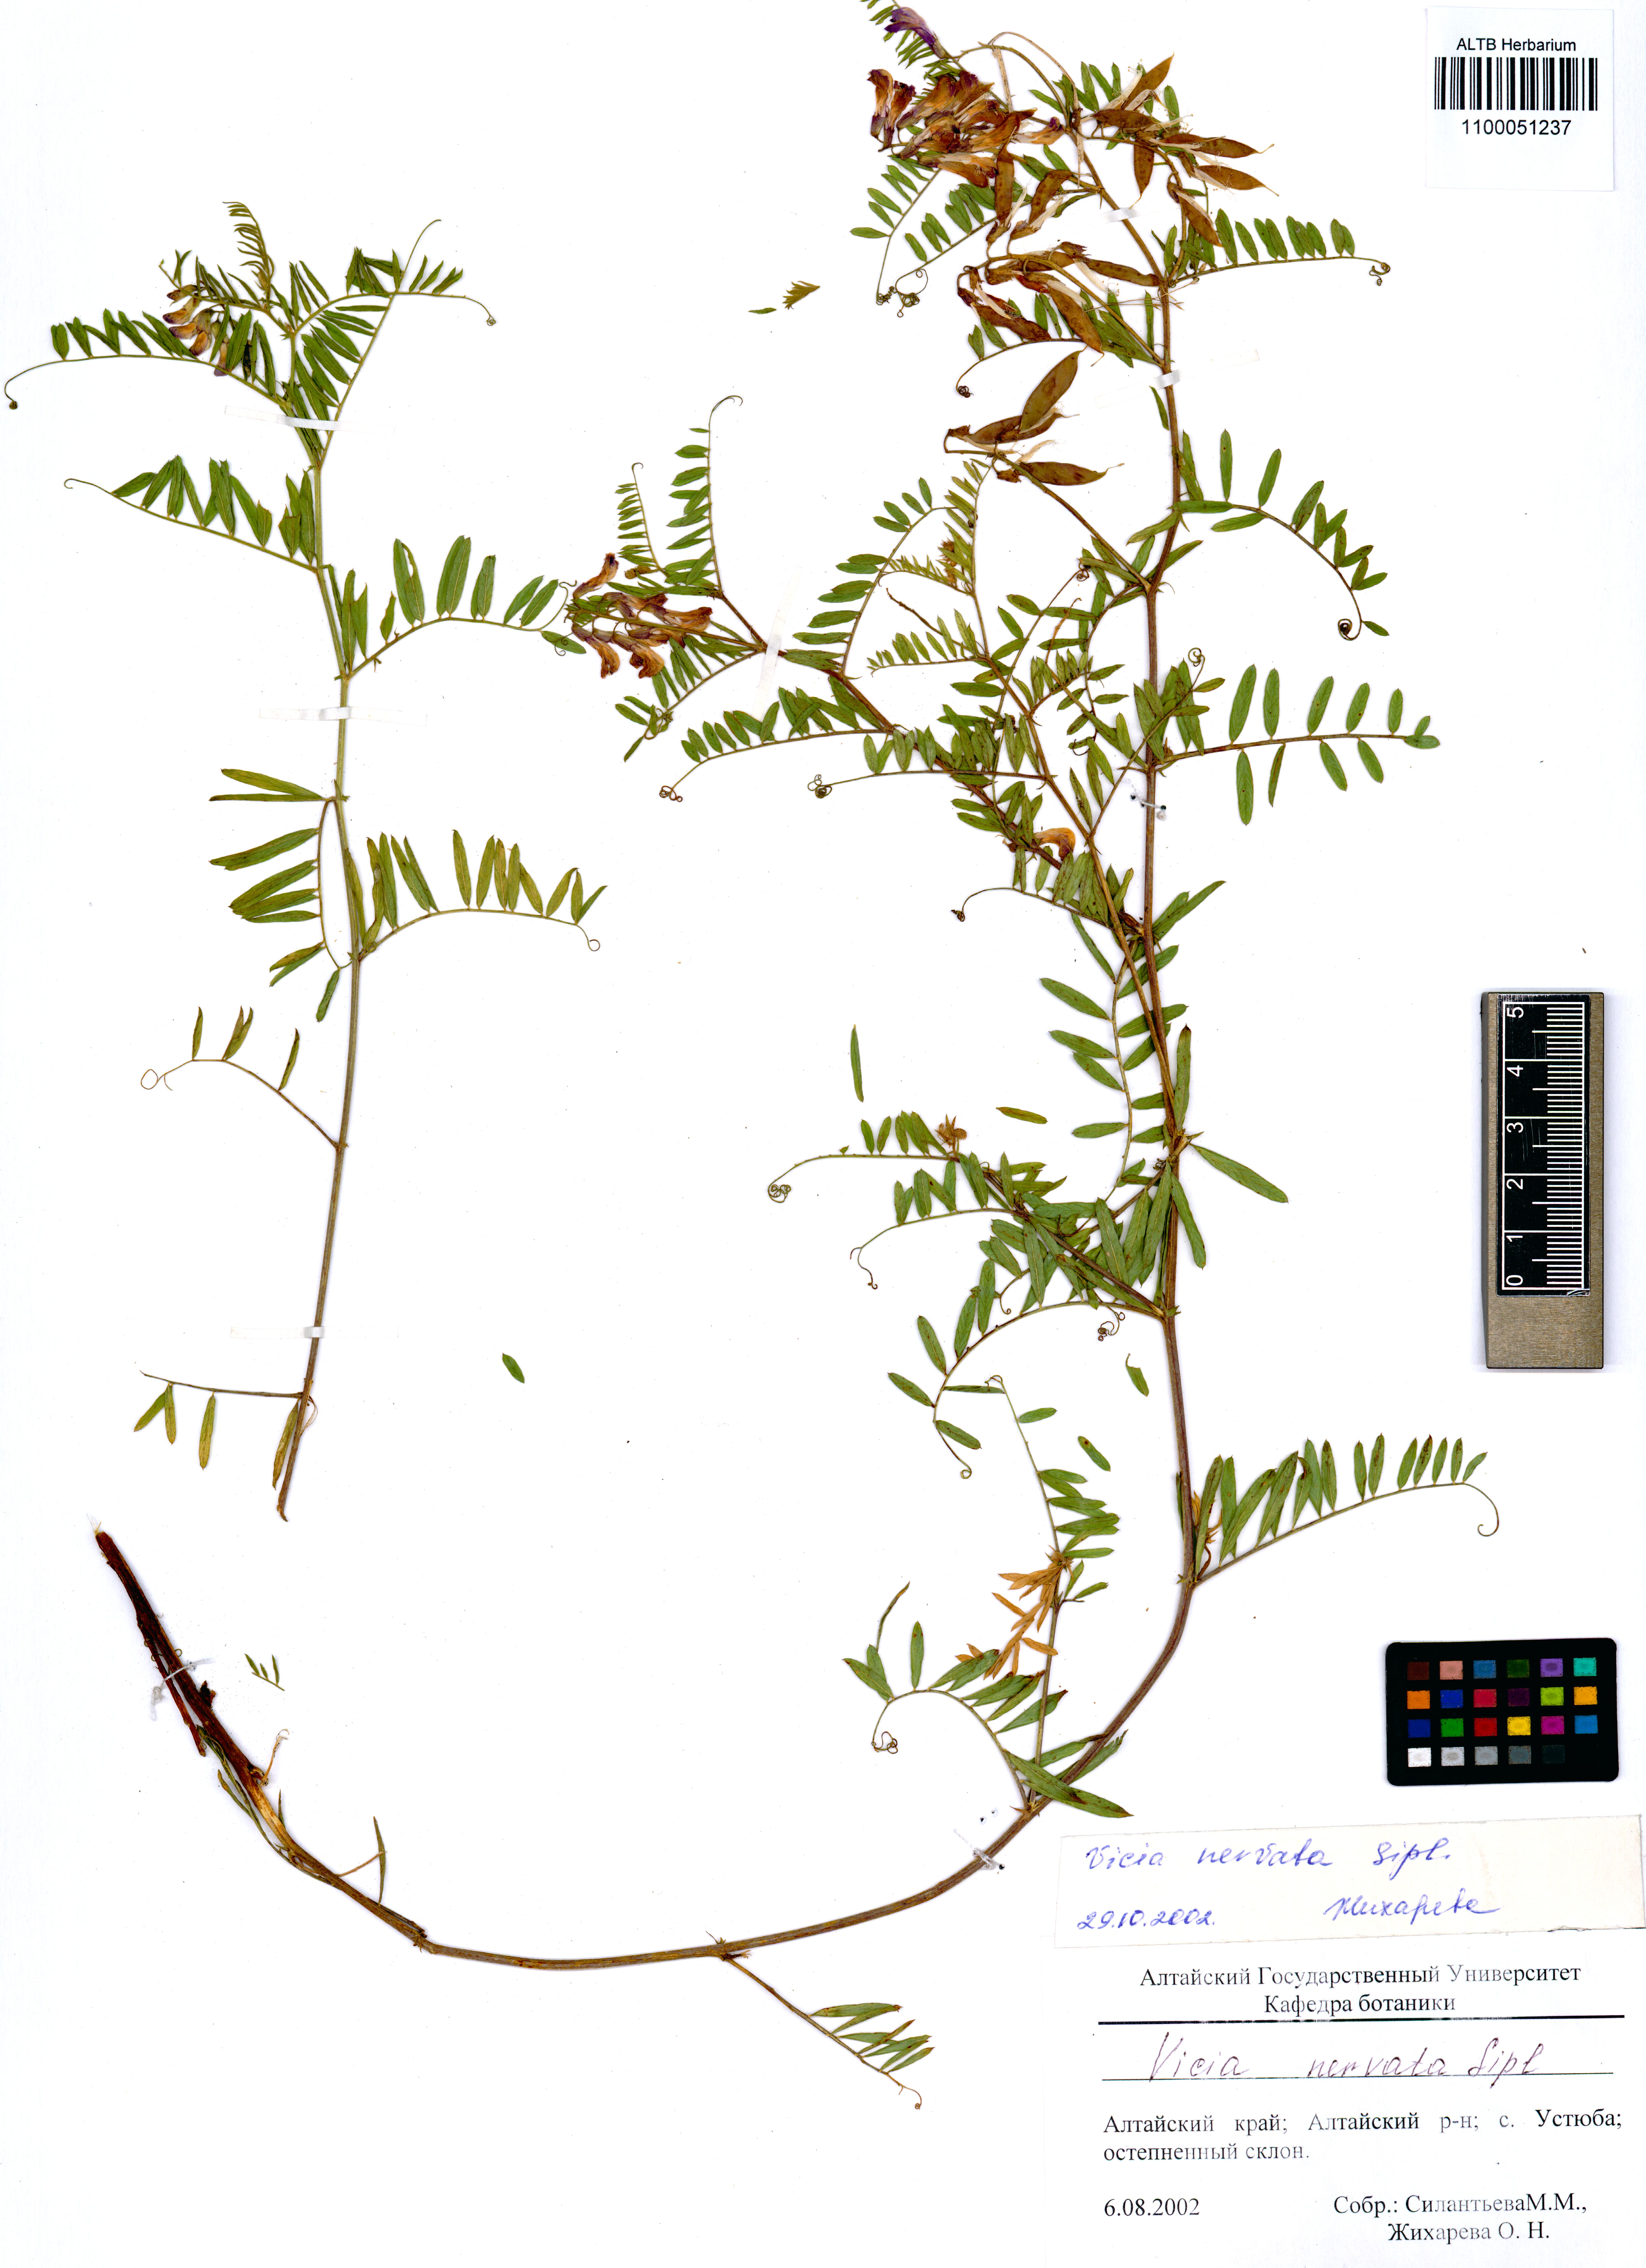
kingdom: Plantae
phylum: Tracheophyta
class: Magnoliopsida
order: Fabales
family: Fabaceae
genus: Vicia
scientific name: Vicia multicaulis
